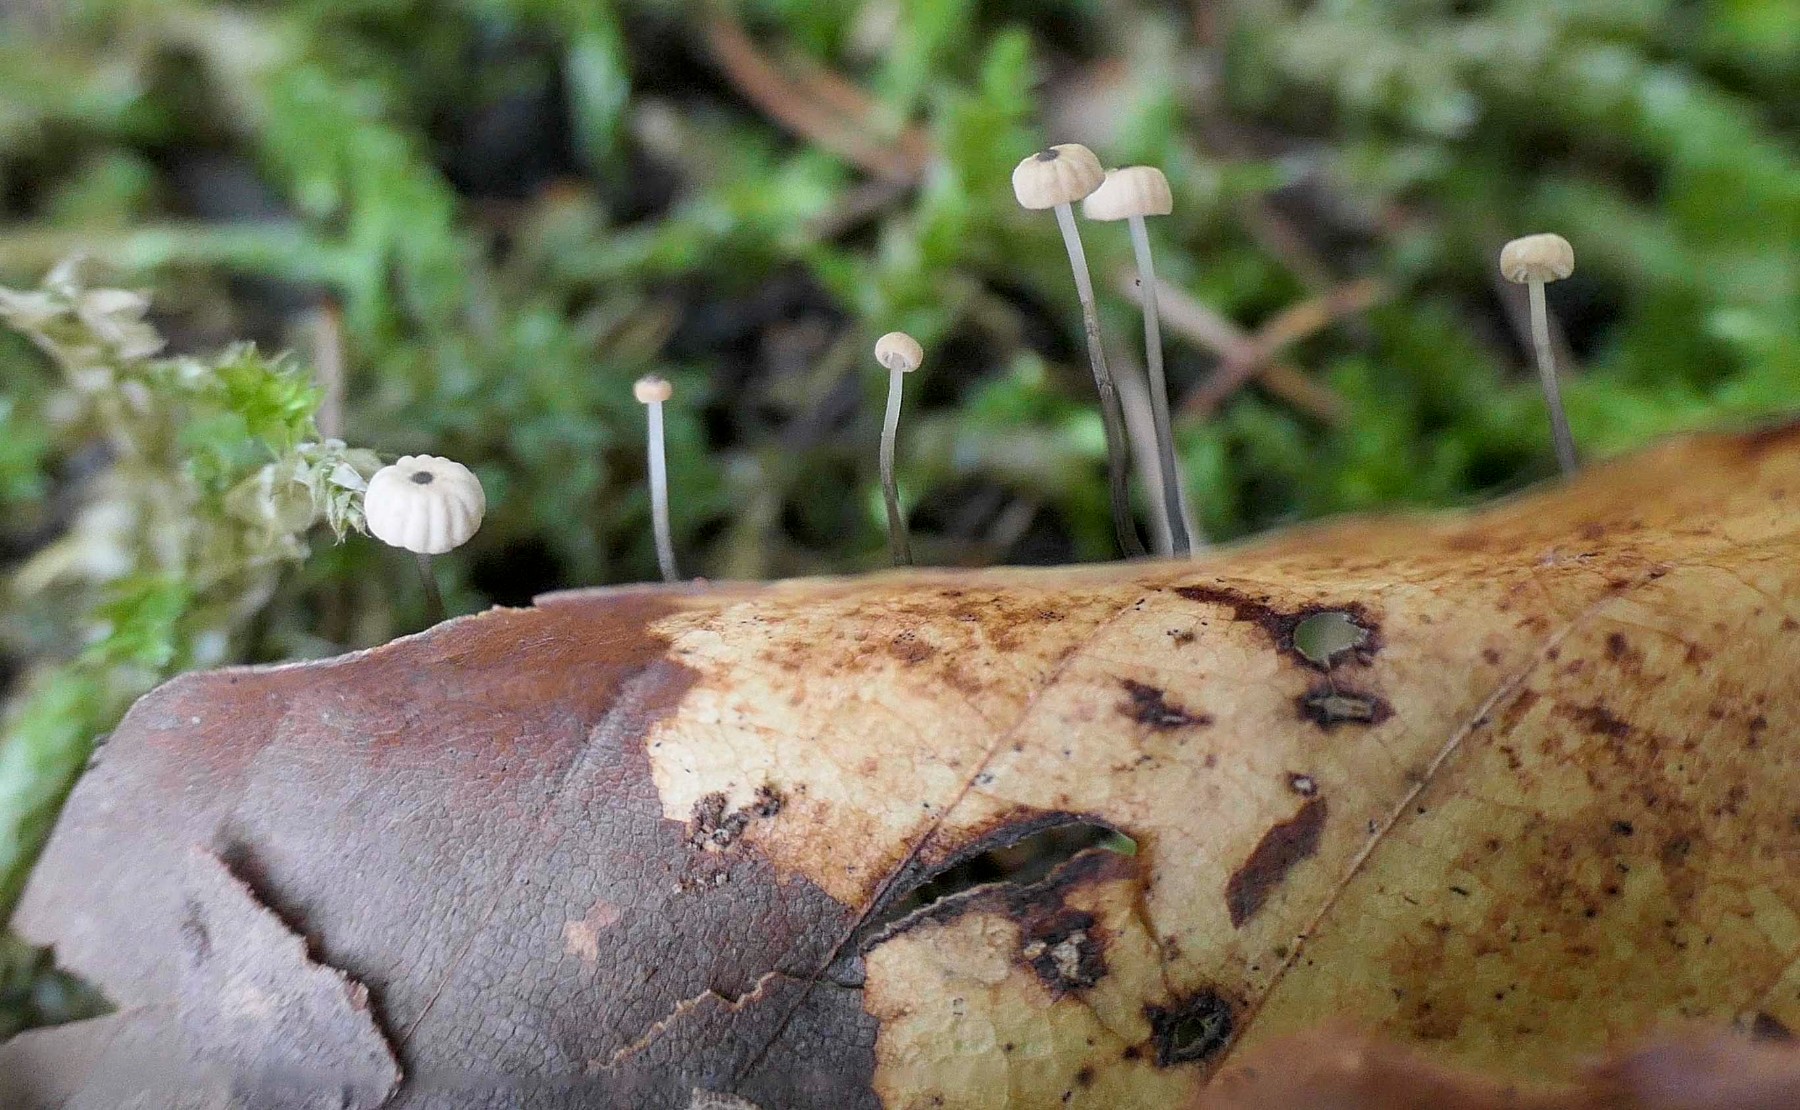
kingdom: Fungi
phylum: Basidiomycota
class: Agaricomycetes
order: Agaricales
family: Marasmiaceae
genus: Marasmius
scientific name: Marasmius bulliardii
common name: furet bruskhat
